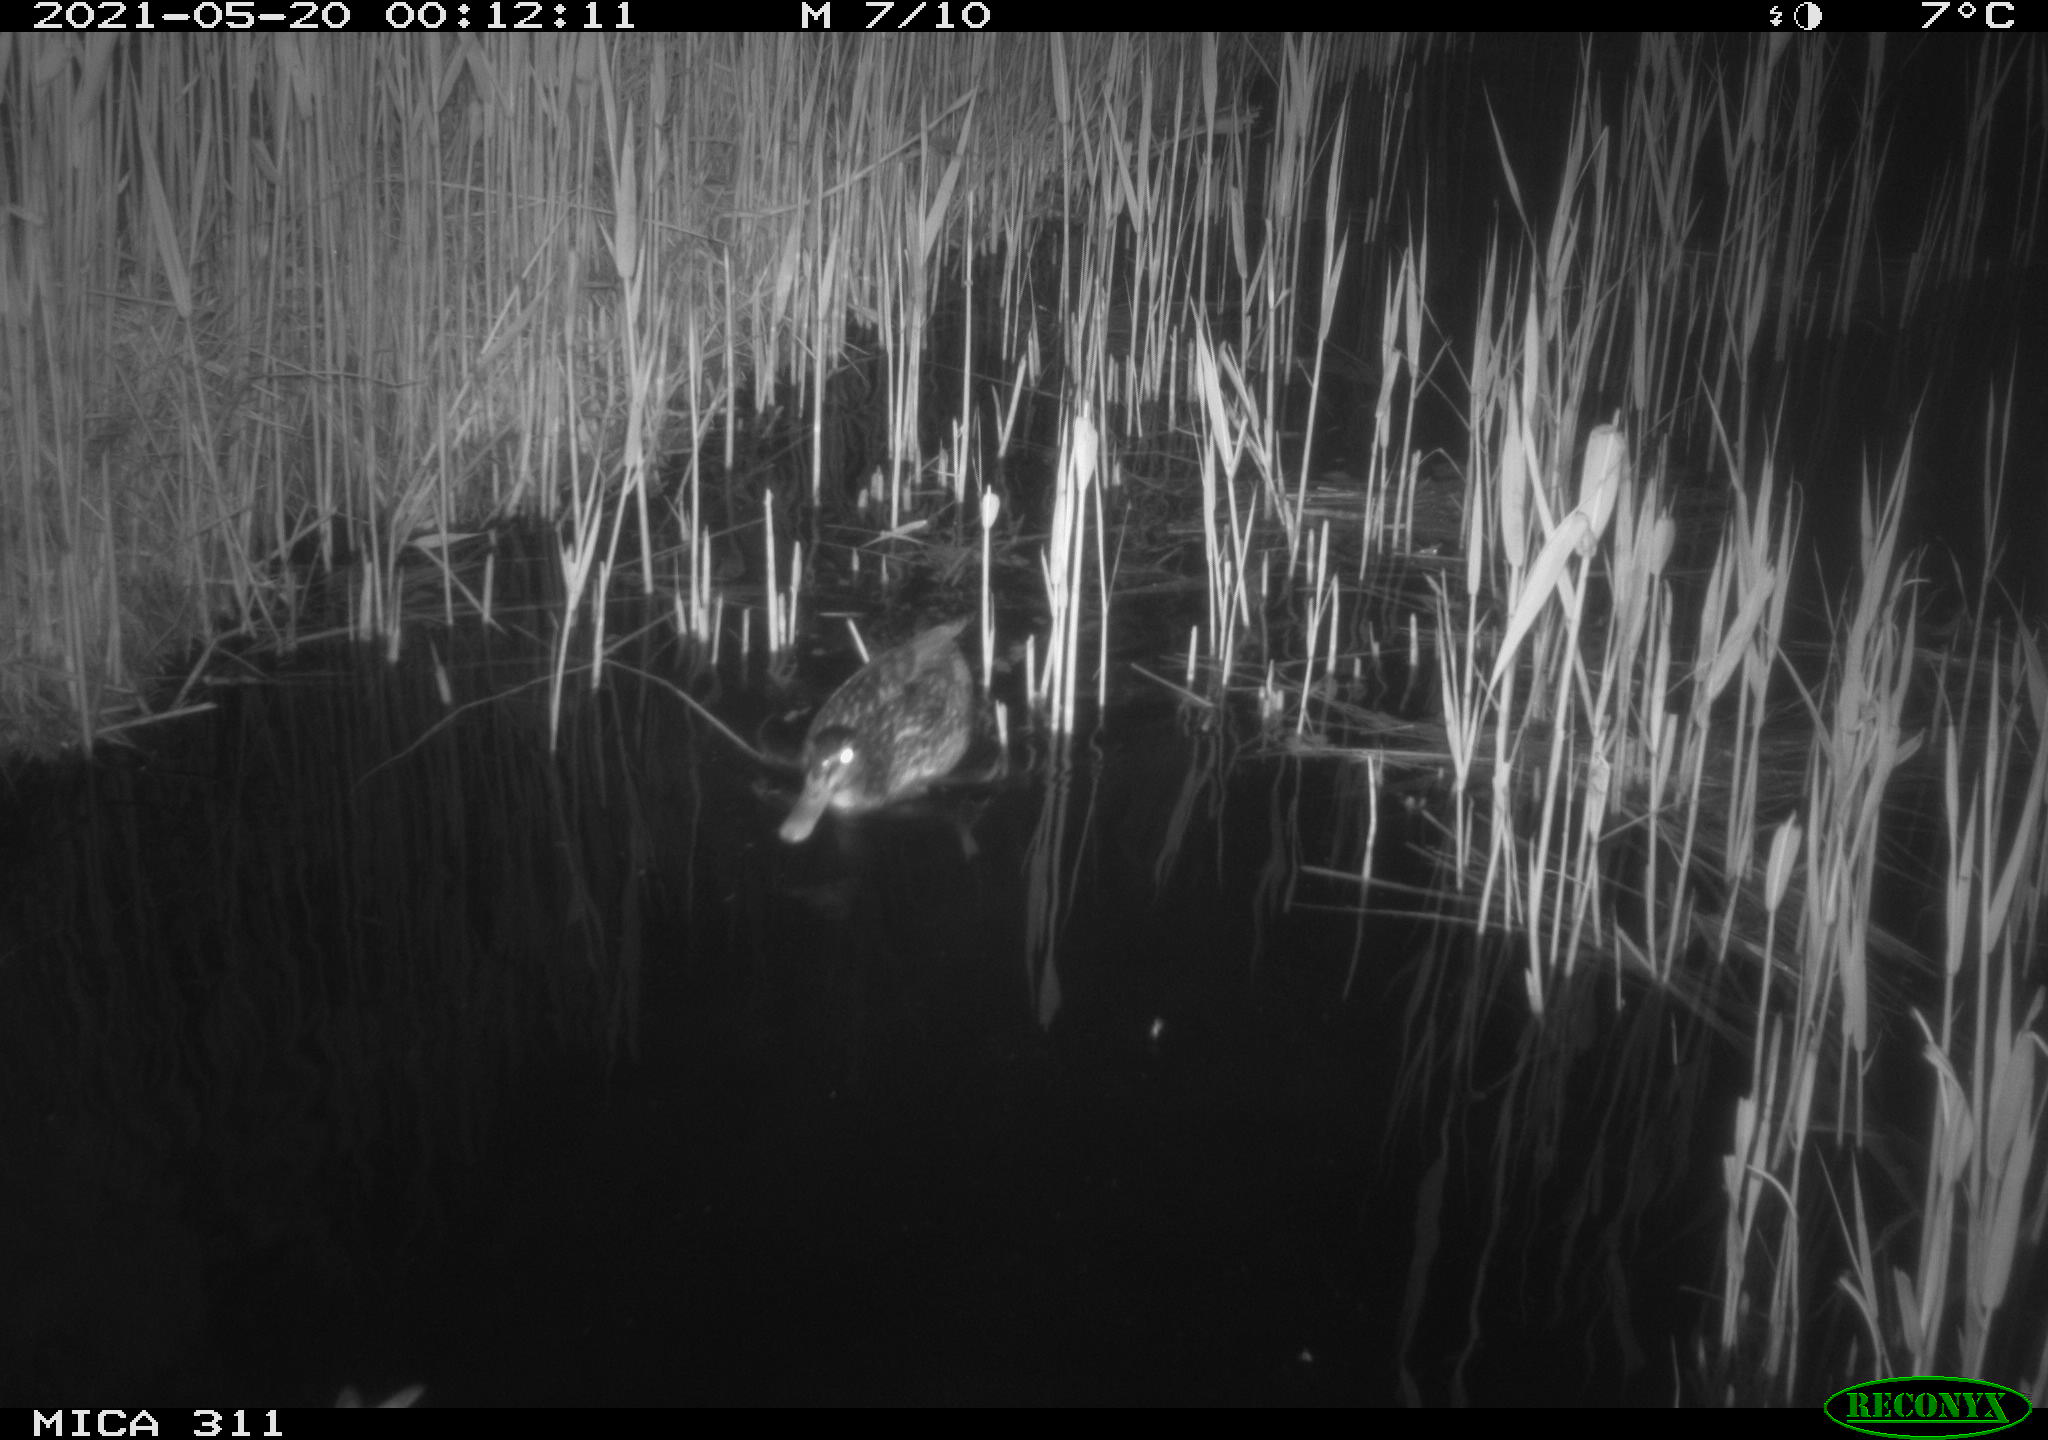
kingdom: Animalia
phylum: Chordata
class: Aves
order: Anseriformes
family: Anatidae
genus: Anas
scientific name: Anas
